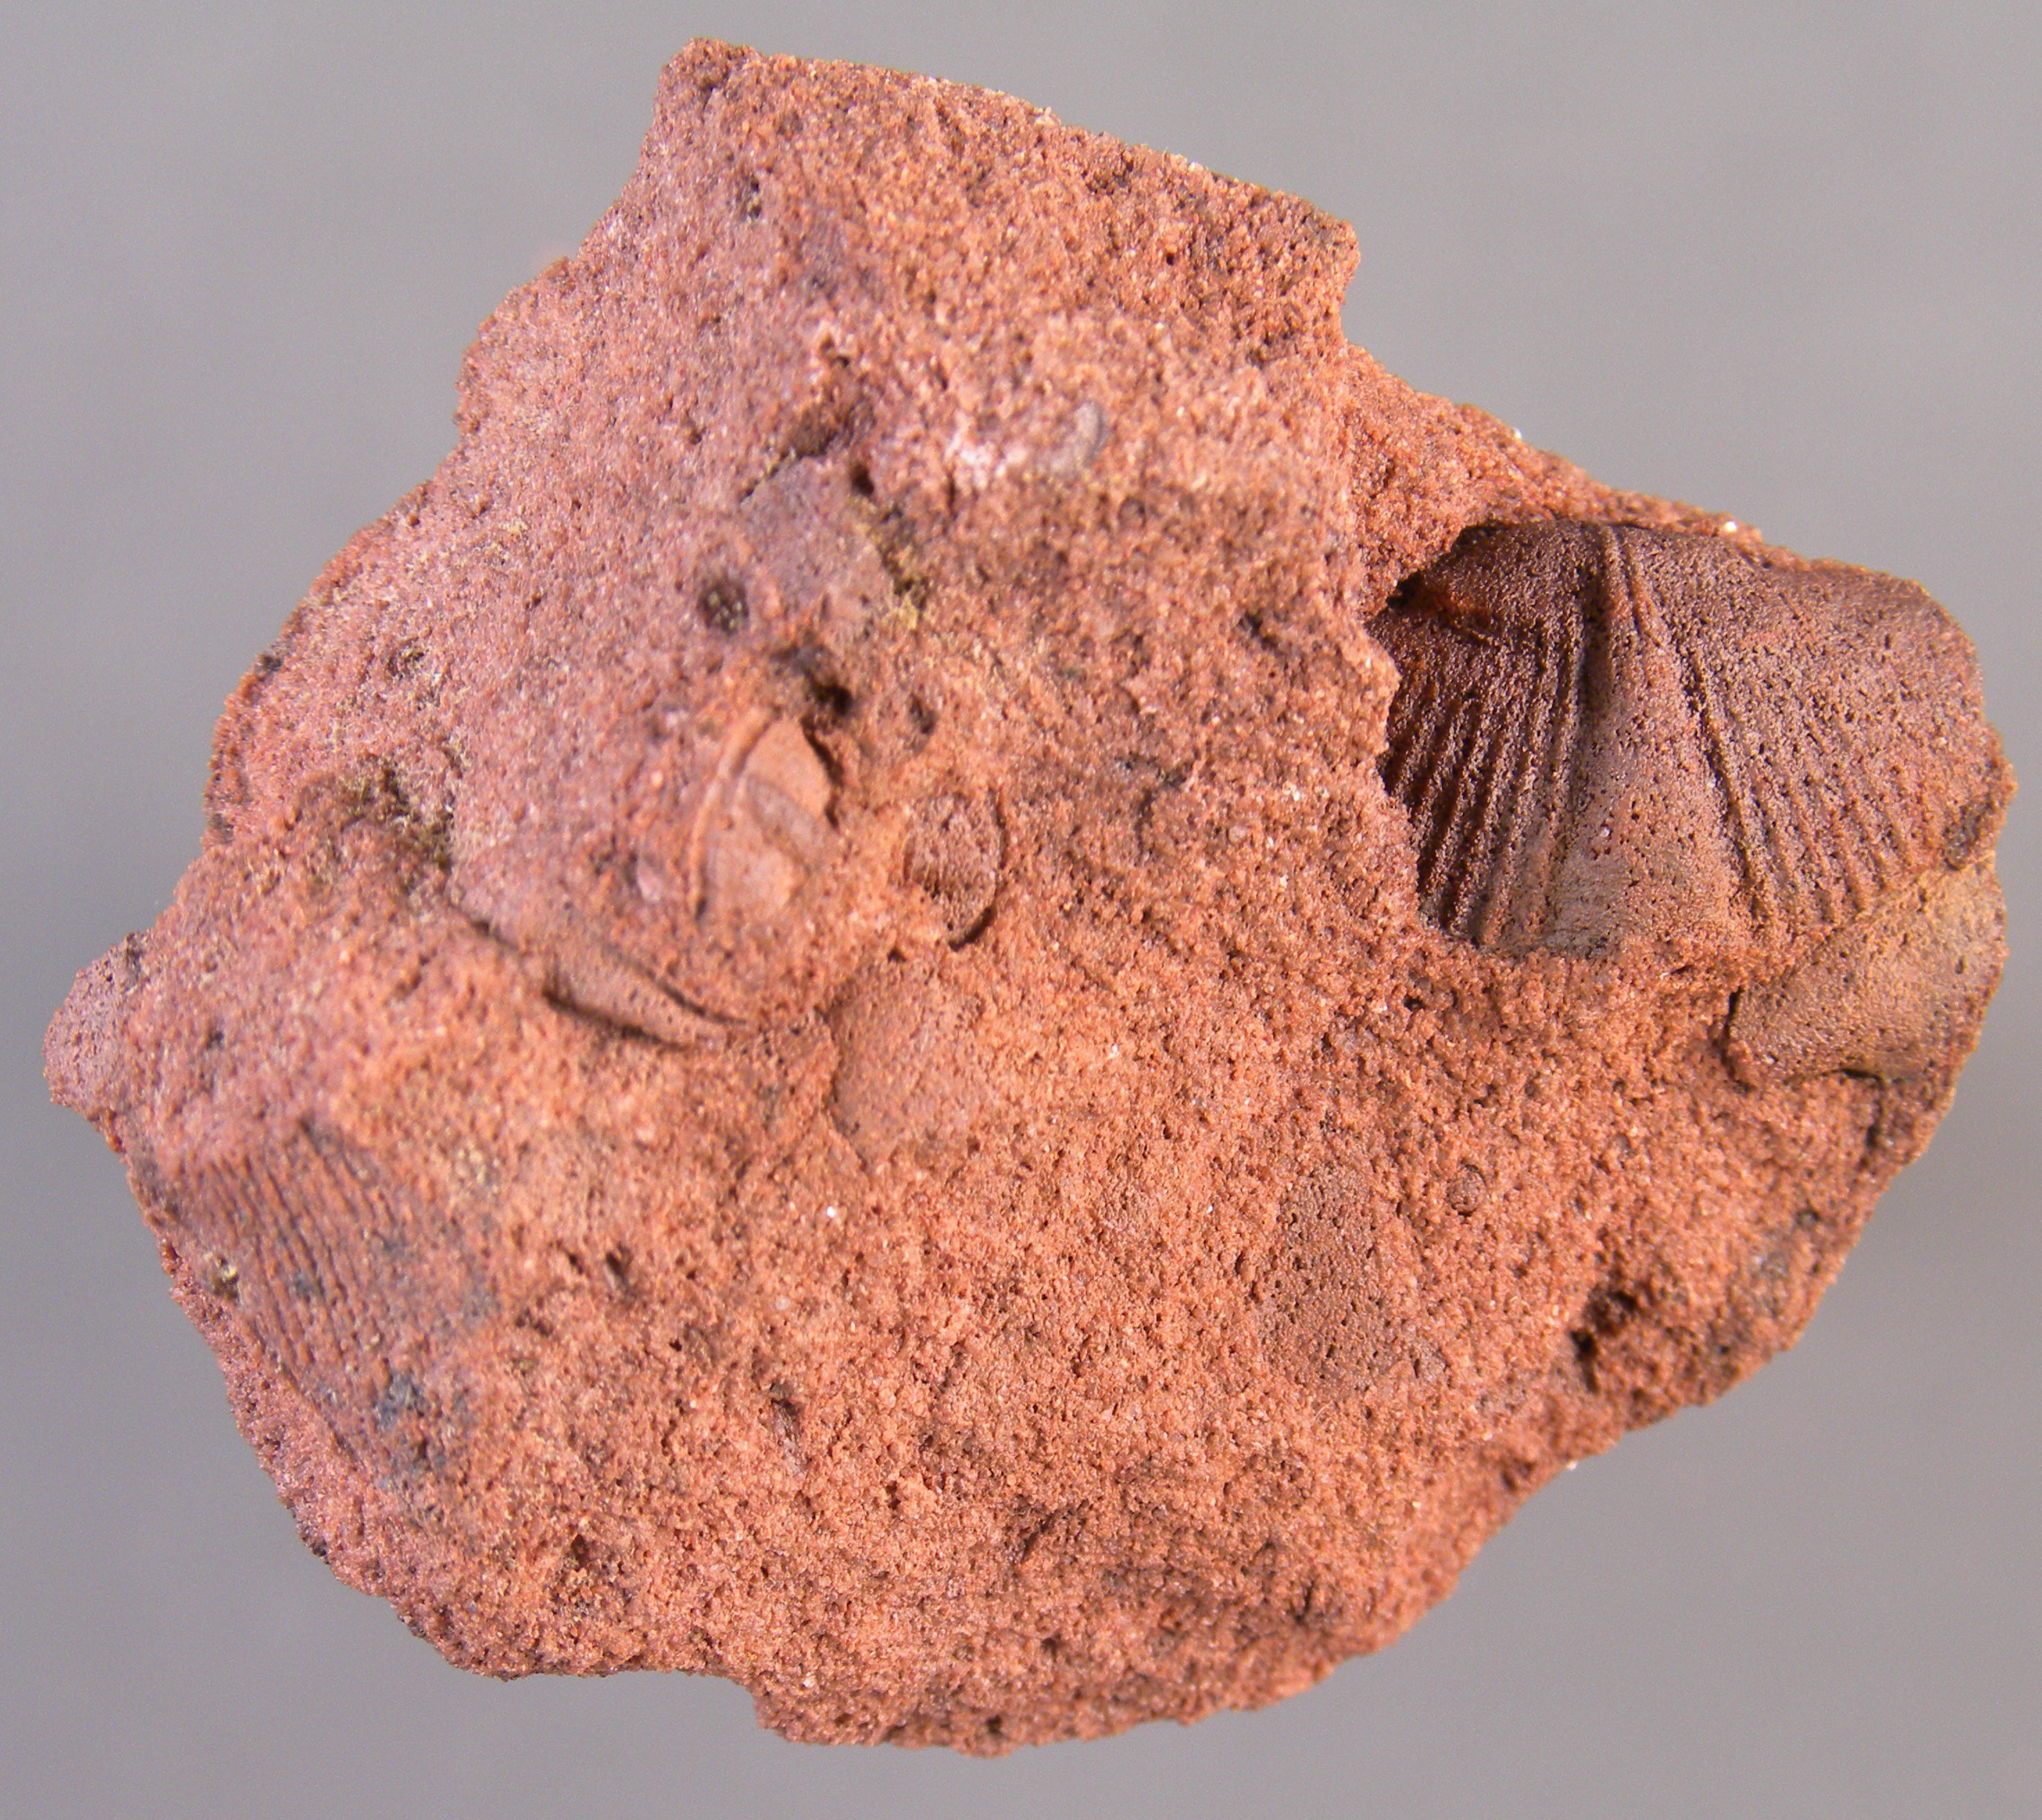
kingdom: Animalia
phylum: Arthropoda
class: Trilobita
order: Phacopida
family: Acastidae
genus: Acastava
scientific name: Acastava
